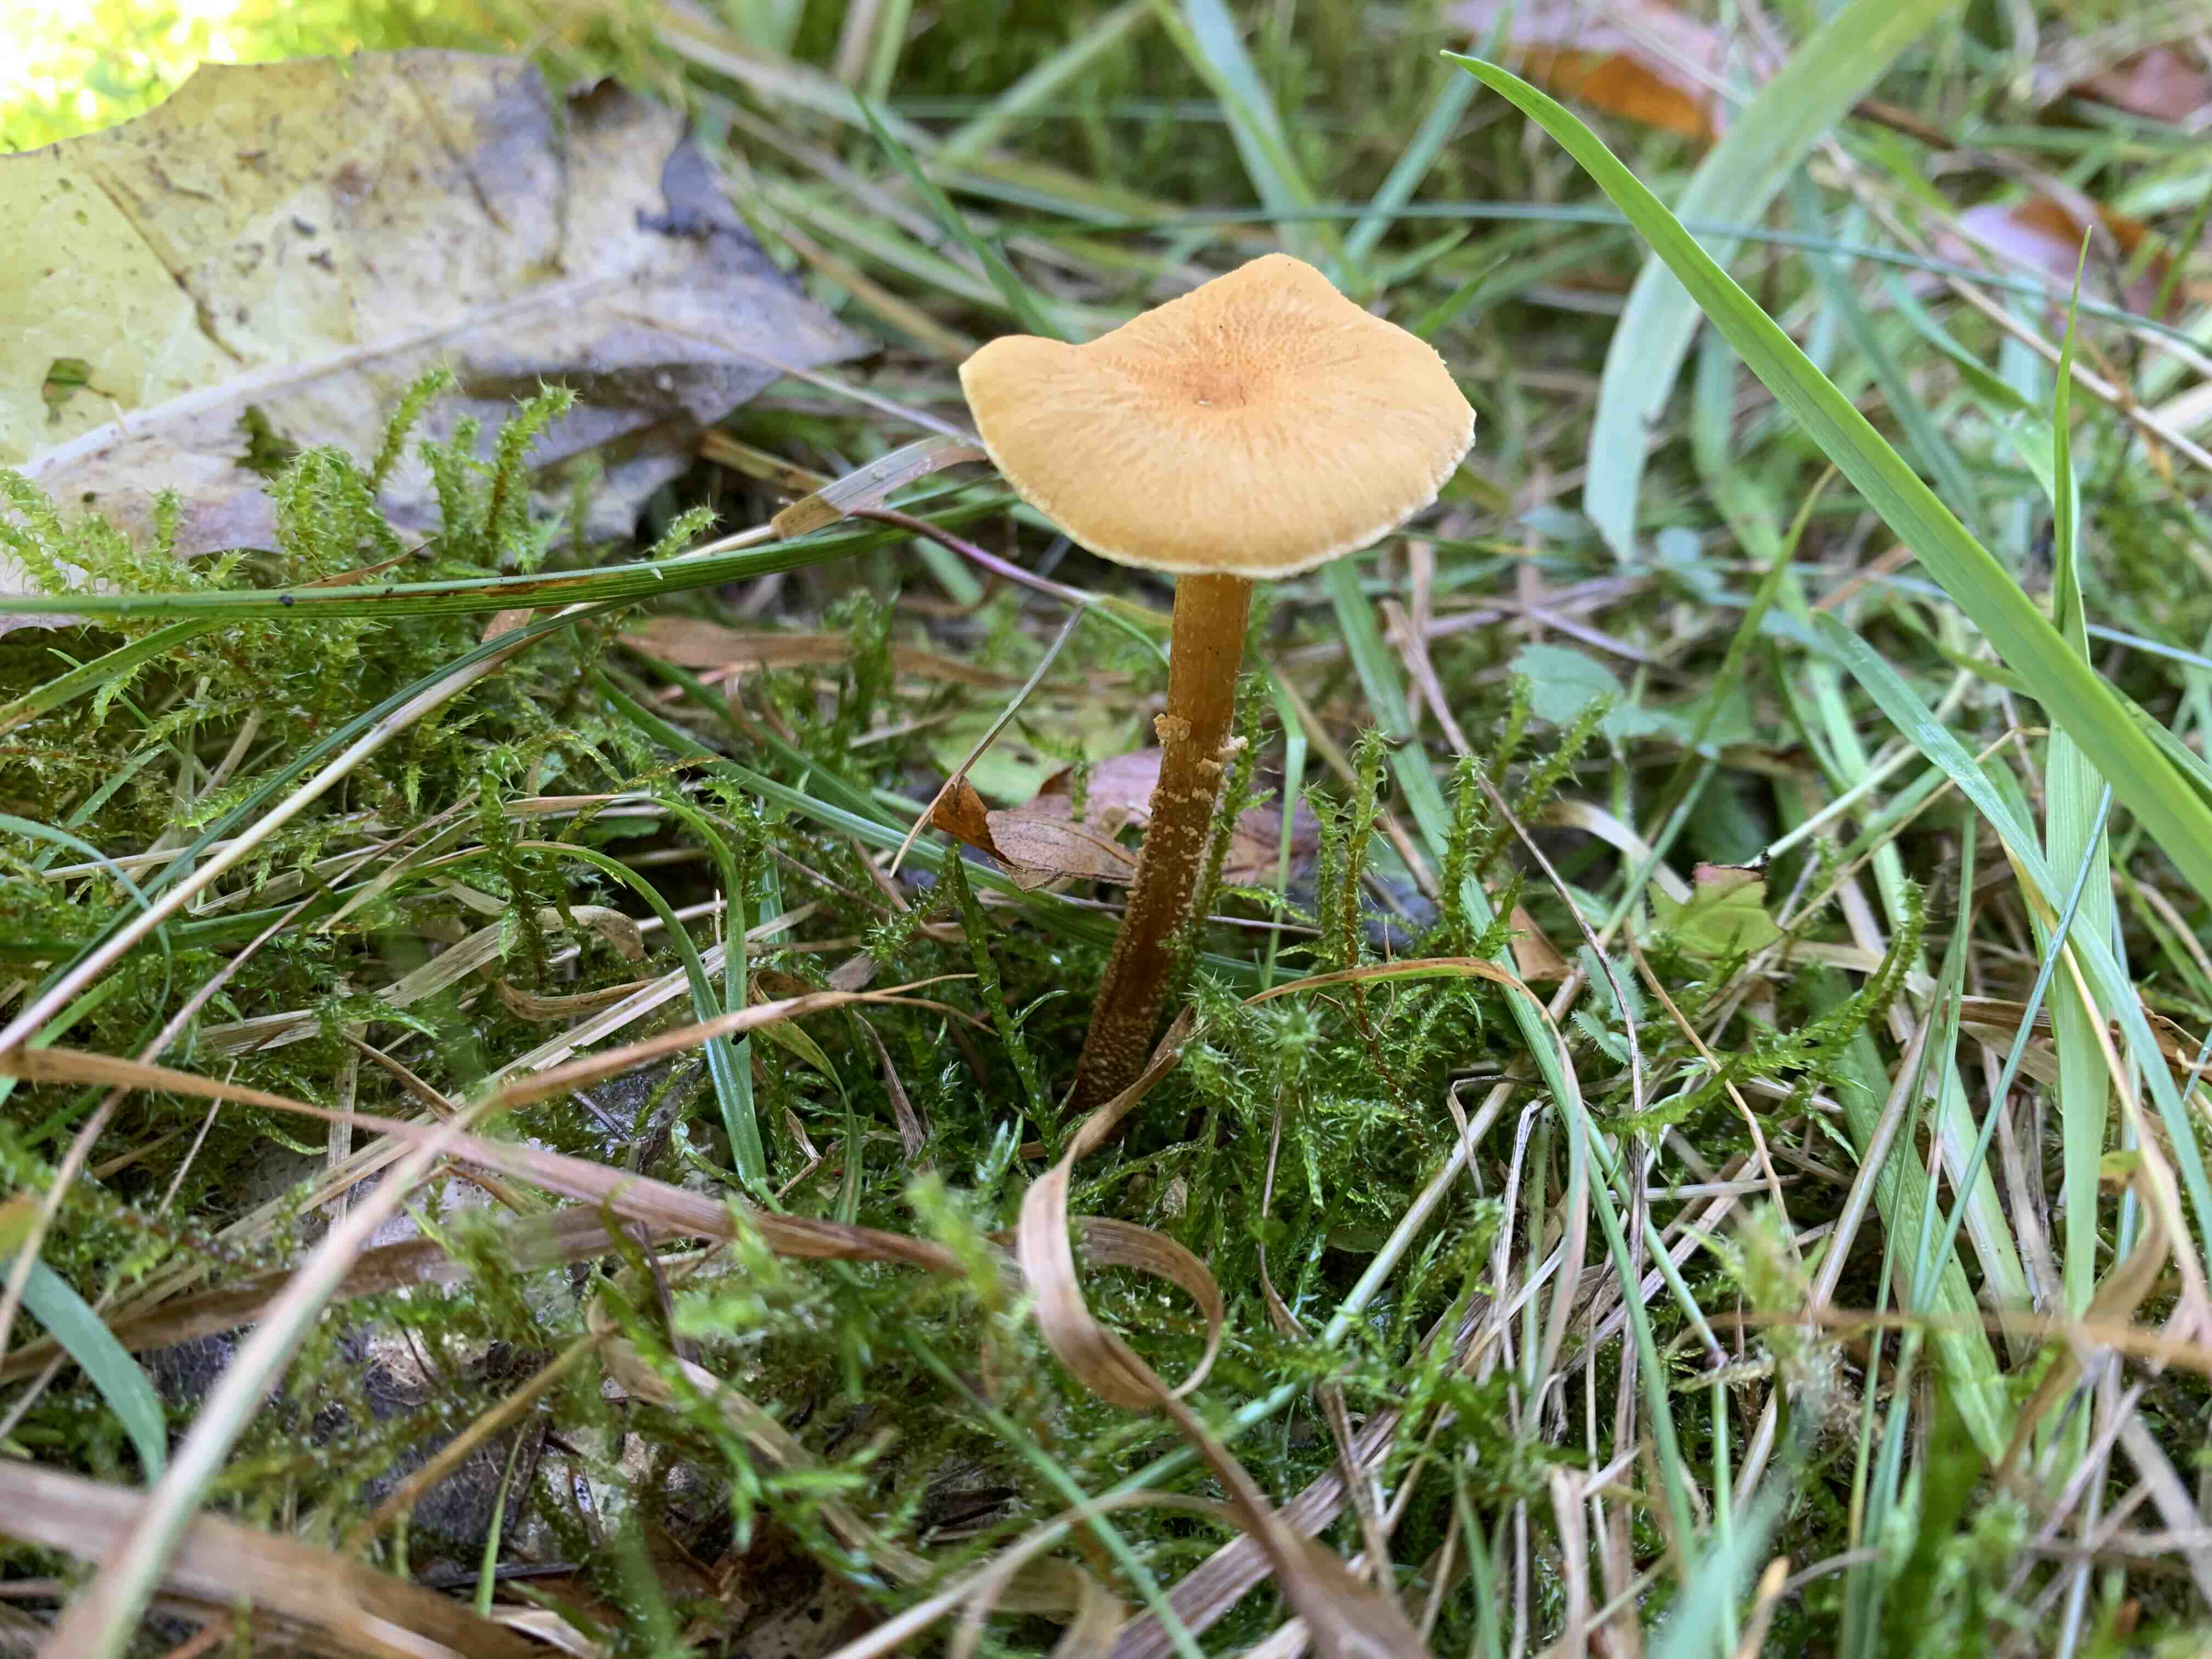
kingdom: Fungi
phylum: Basidiomycota
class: Agaricomycetes
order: Agaricales
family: Tricholomataceae
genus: Cystoderma
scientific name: Cystoderma amianthinum
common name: okkergul grynhat
